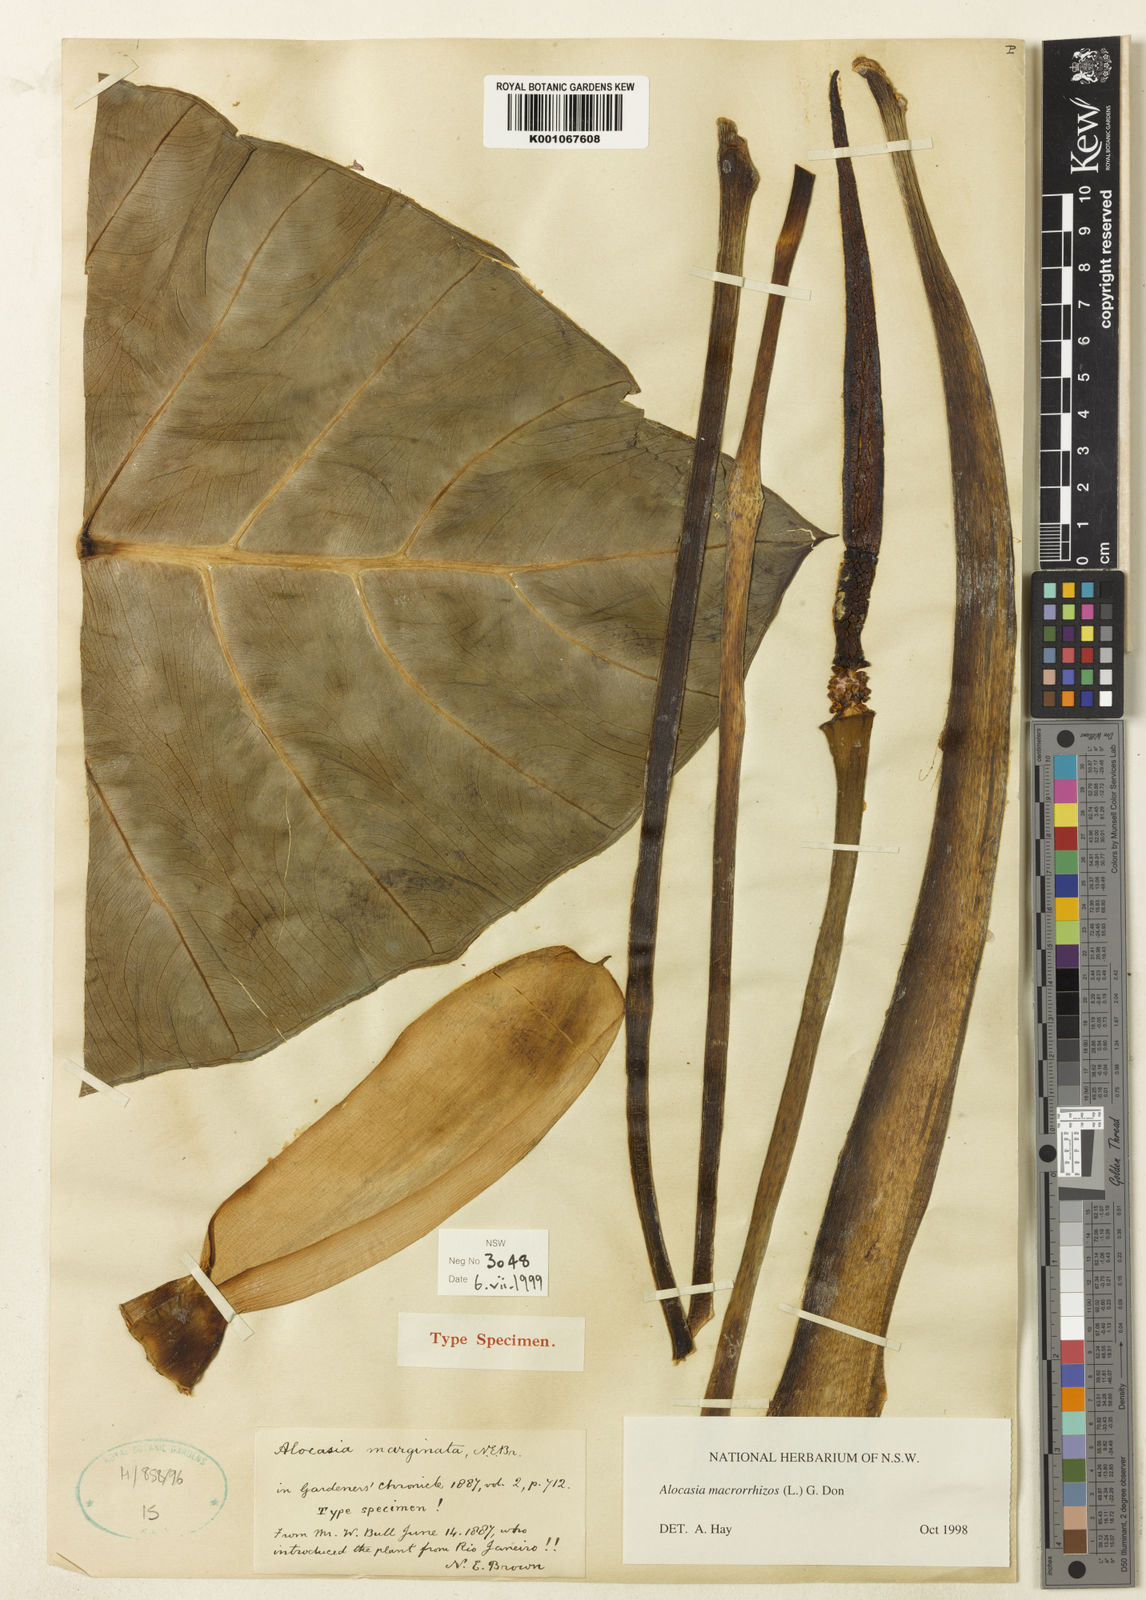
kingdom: Plantae
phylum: Tracheophyta
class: Liliopsida
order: Alismatales
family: Araceae
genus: Alocasia
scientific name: Alocasia macrorrhizos
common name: Giant taro
